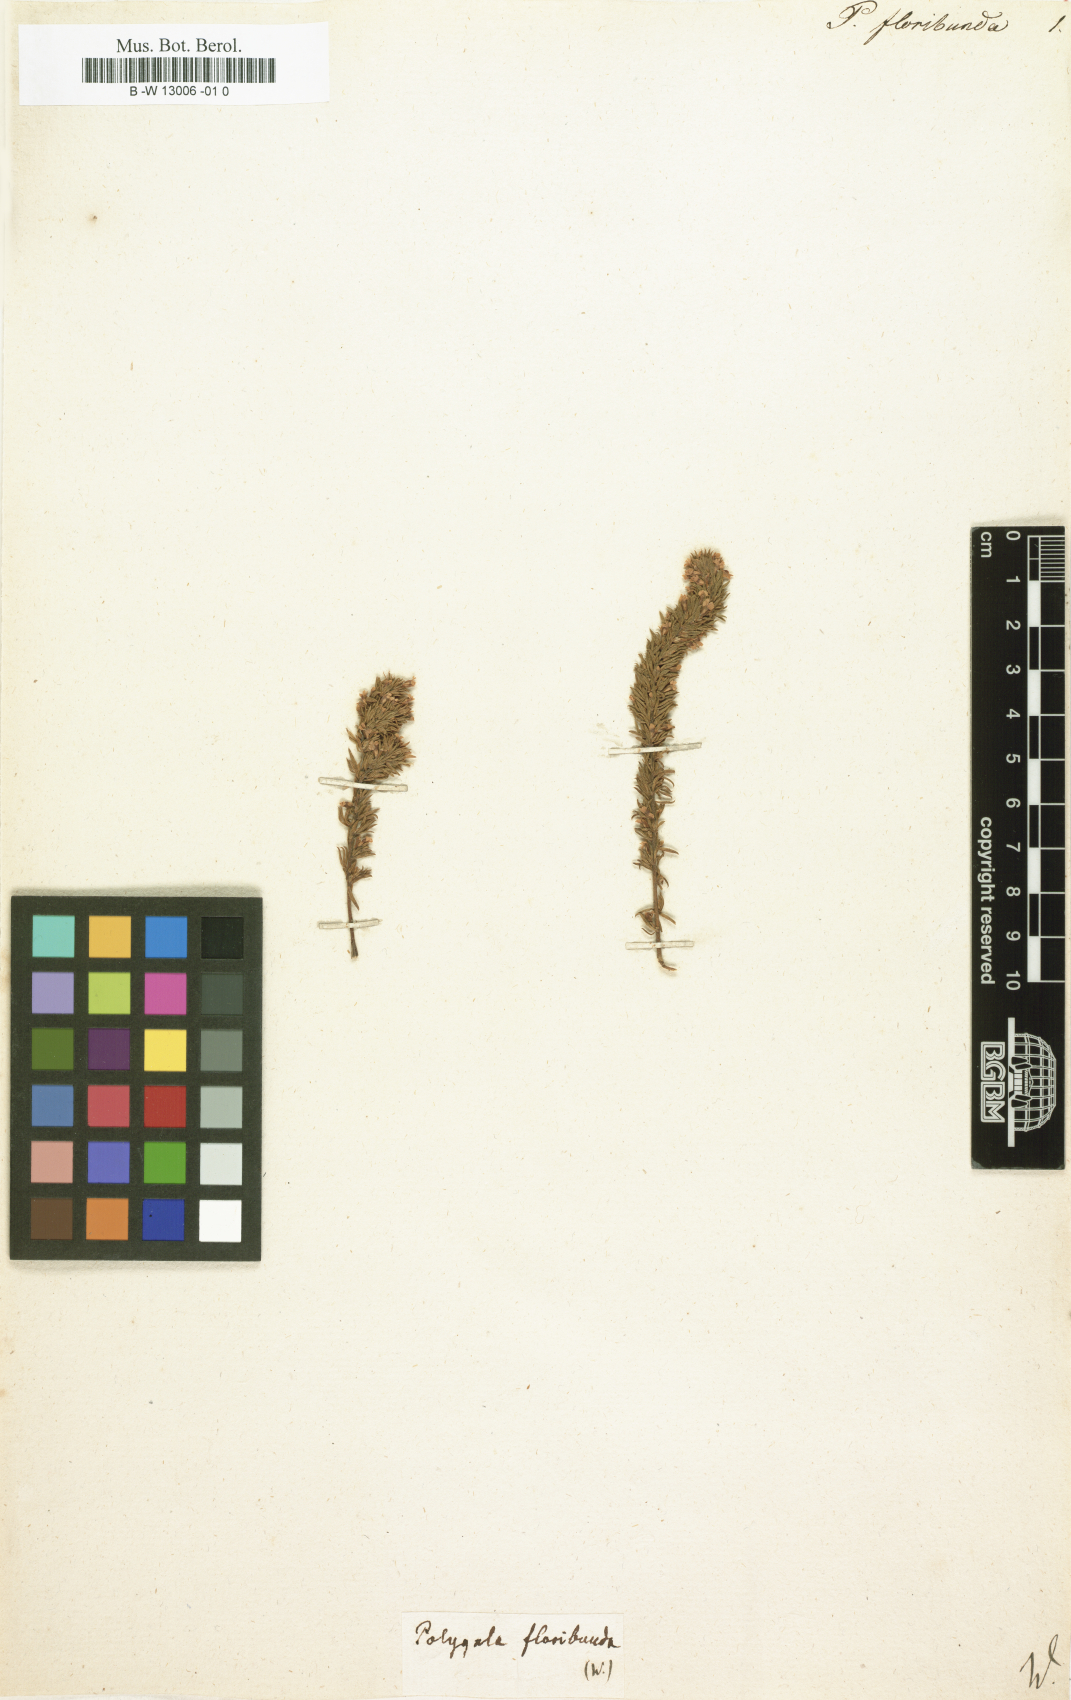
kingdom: Plantae
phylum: Tracheophyta
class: Magnoliopsida
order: Fabales
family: Polygalaceae
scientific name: Polygalaceae
